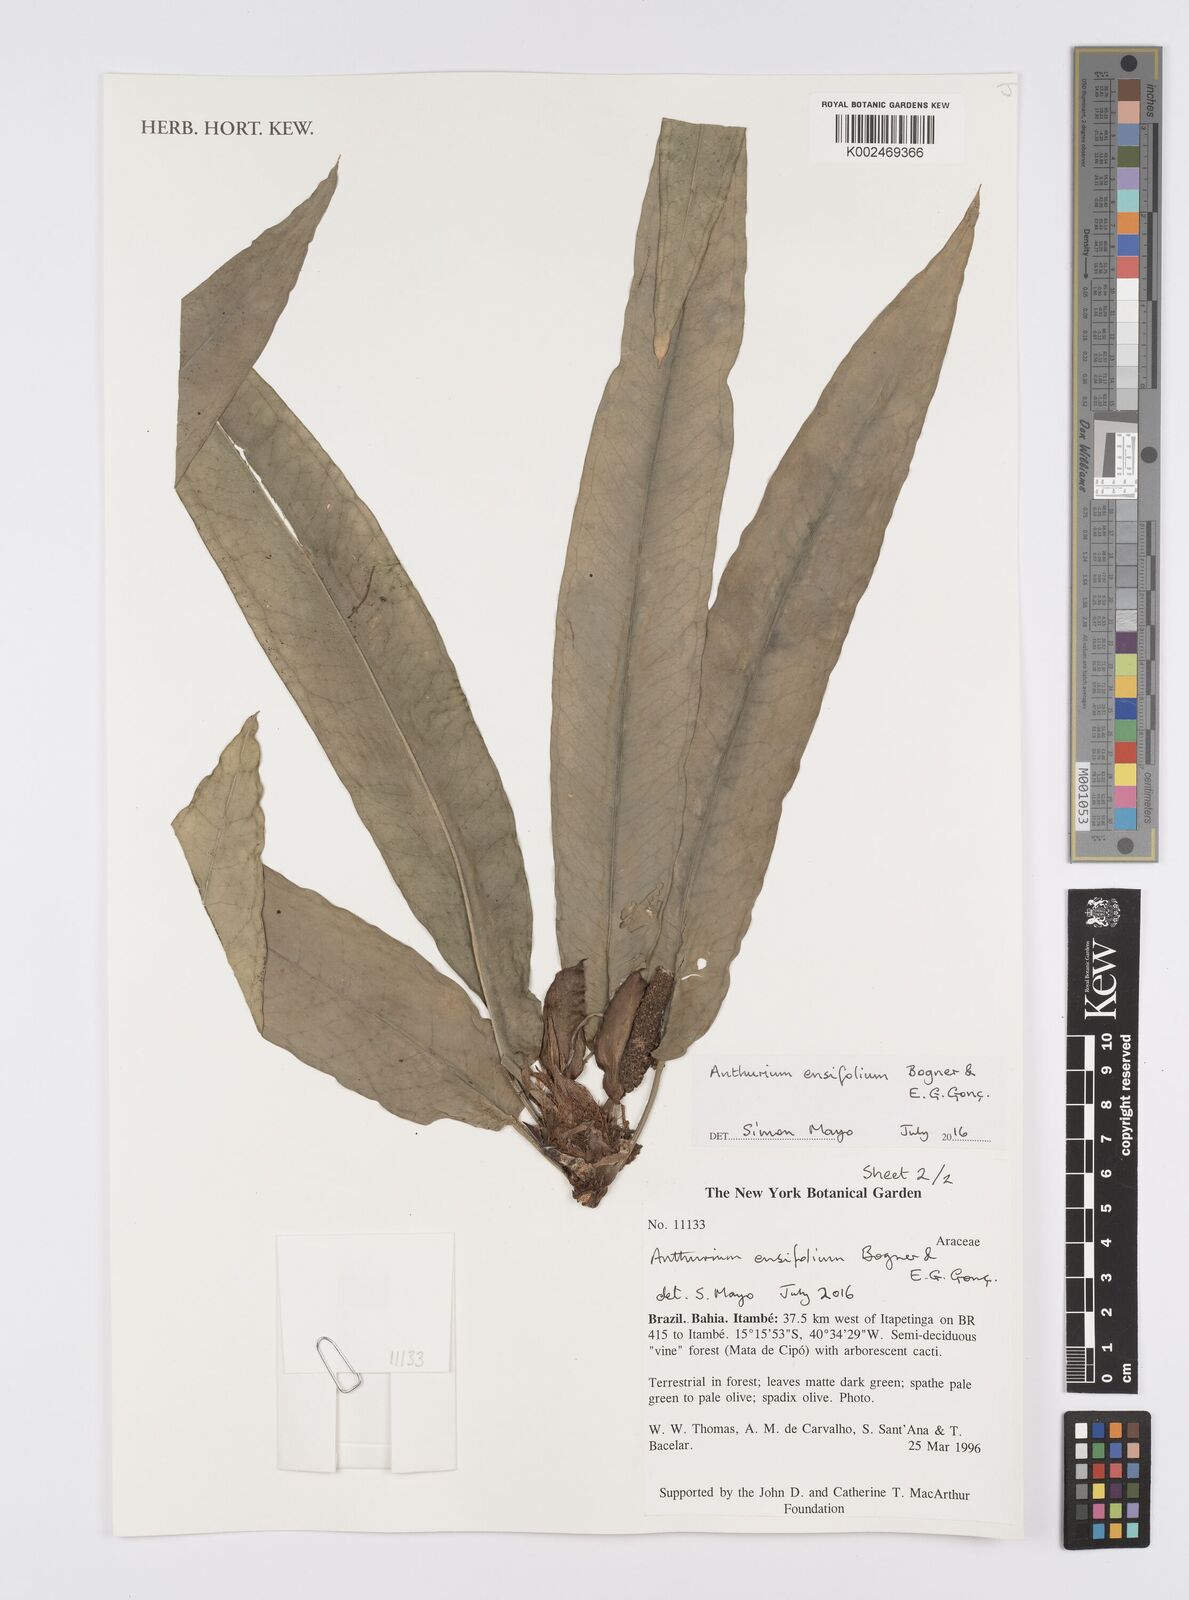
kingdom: Plantae
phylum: Tracheophyta
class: Liliopsida
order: Alismatales
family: Araceae
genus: Anthurium
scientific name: Anthurium ensifolium
